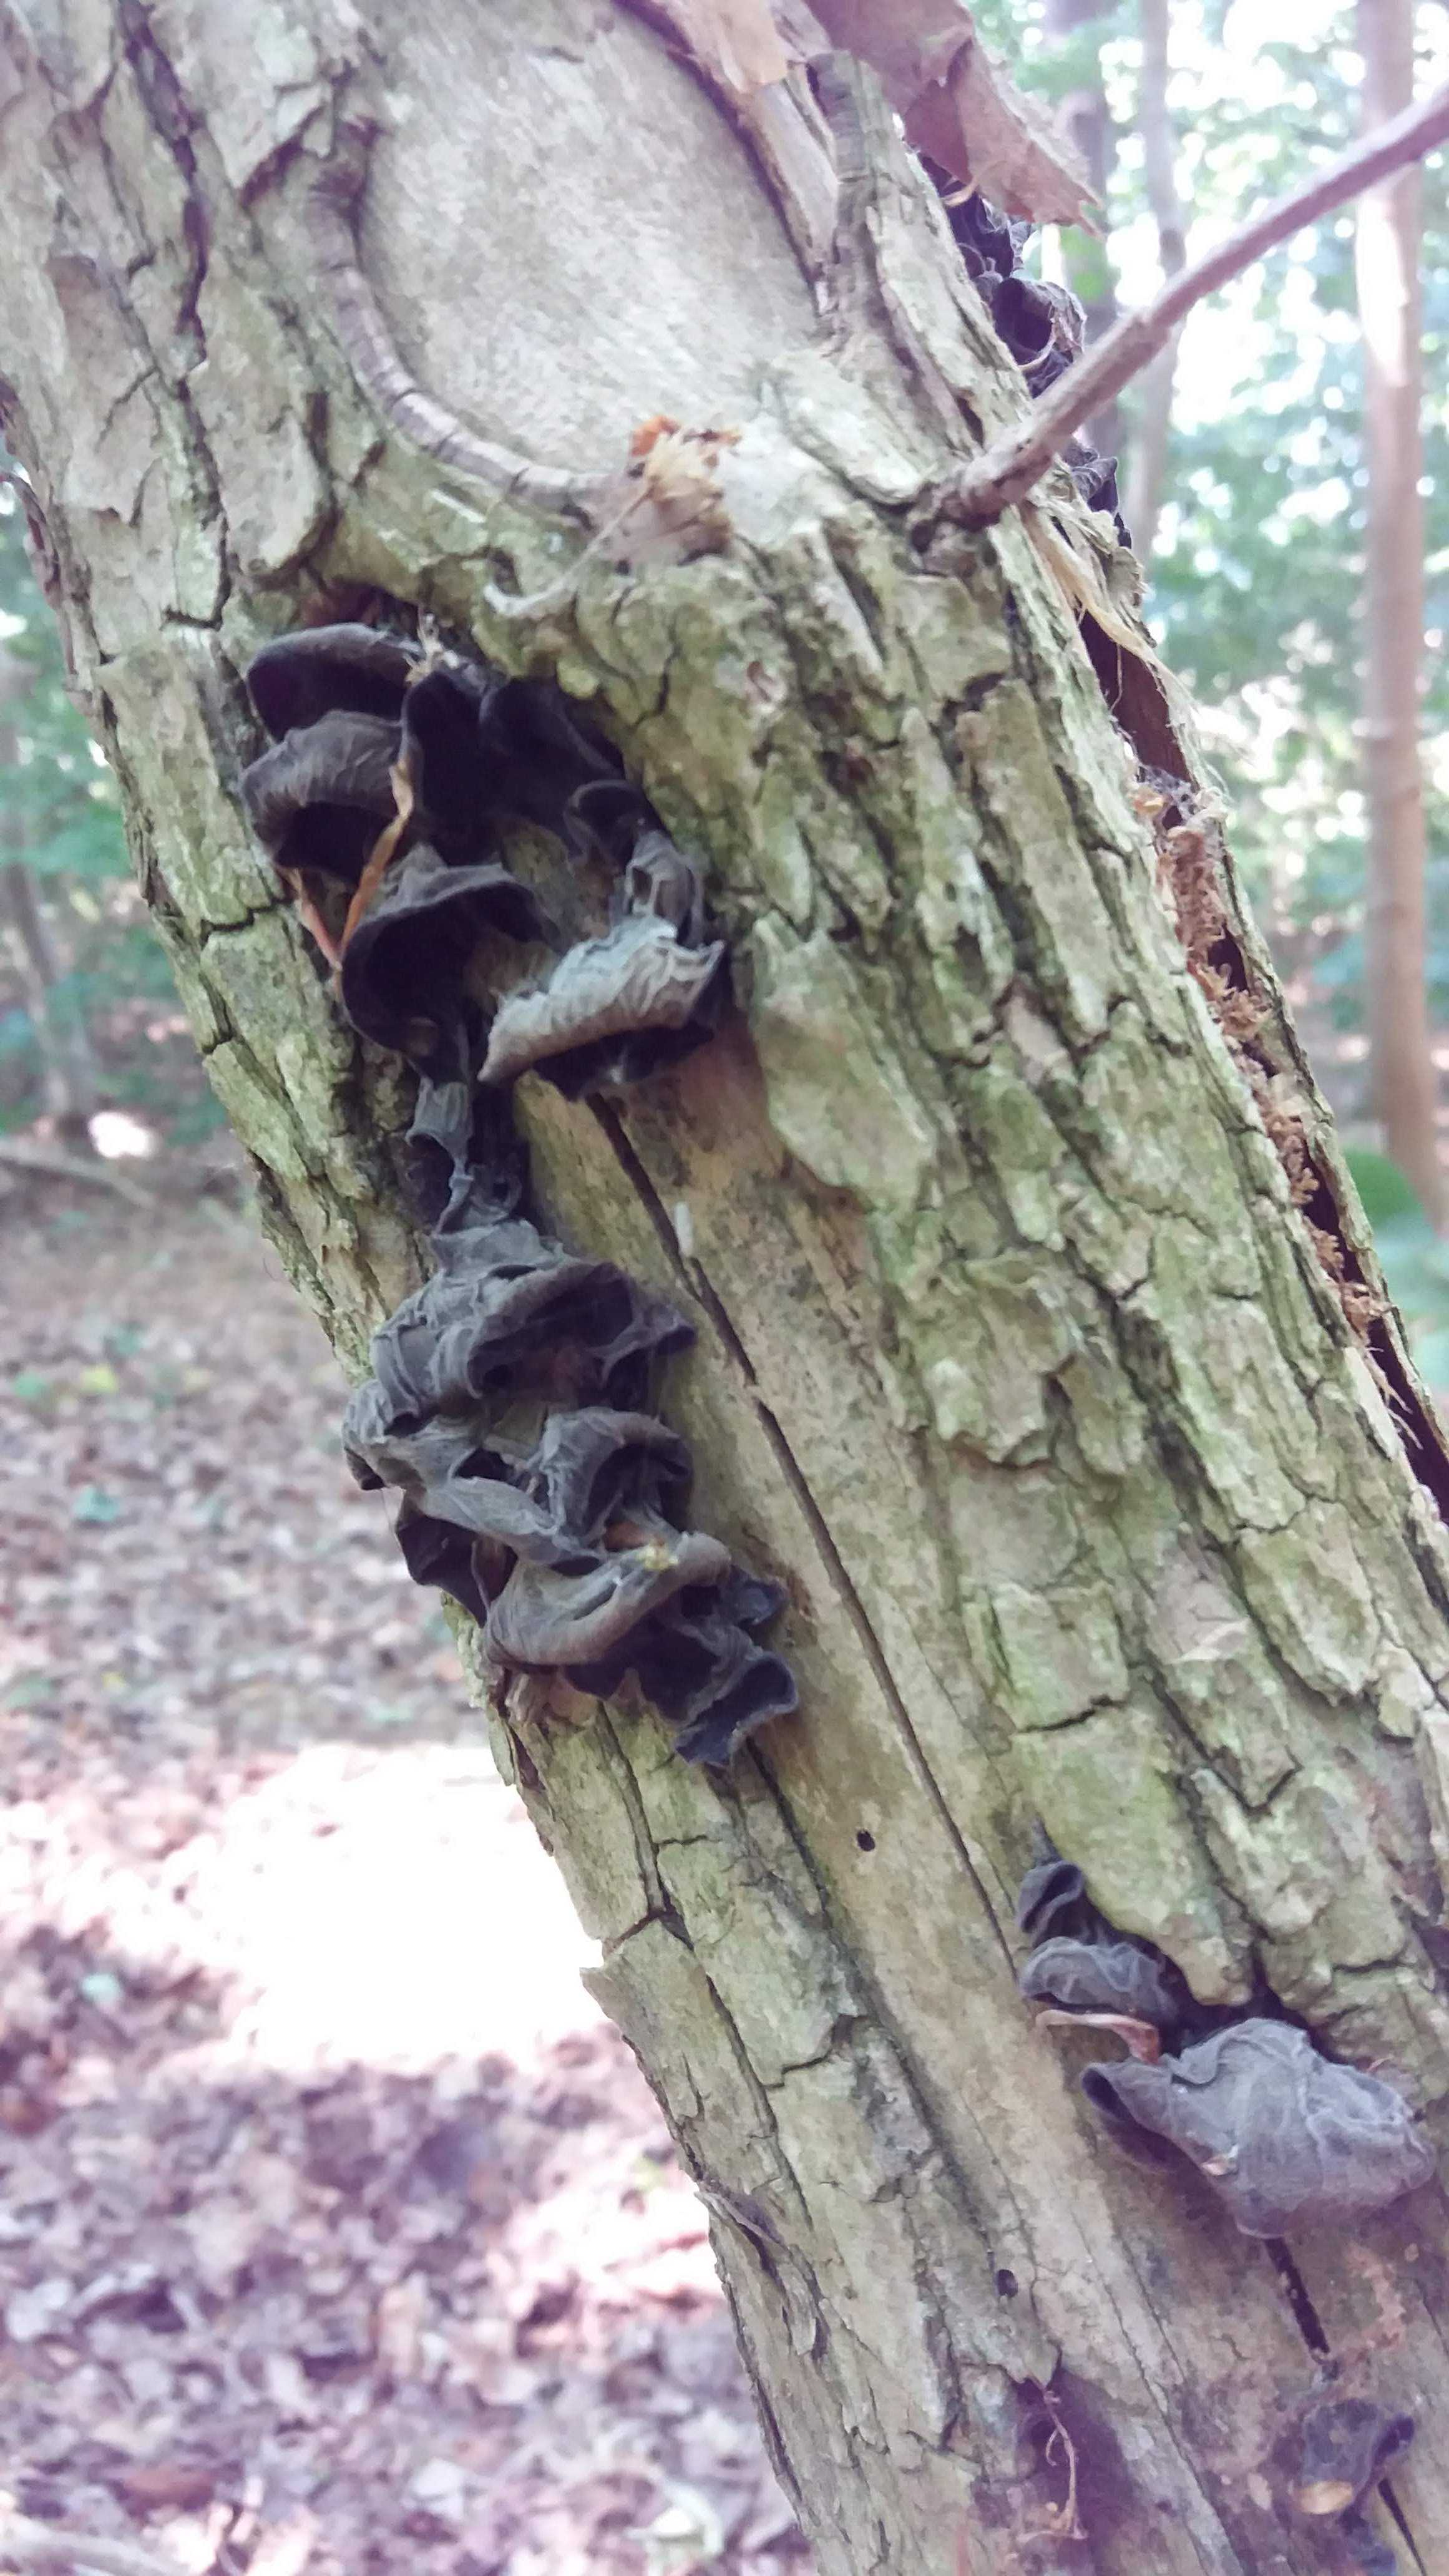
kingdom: Fungi
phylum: Basidiomycota
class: Agaricomycetes
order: Auriculariales
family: Auriculariaceae
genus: Auricularia
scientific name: Auricularia auricula-judae
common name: almindelig judasøre
